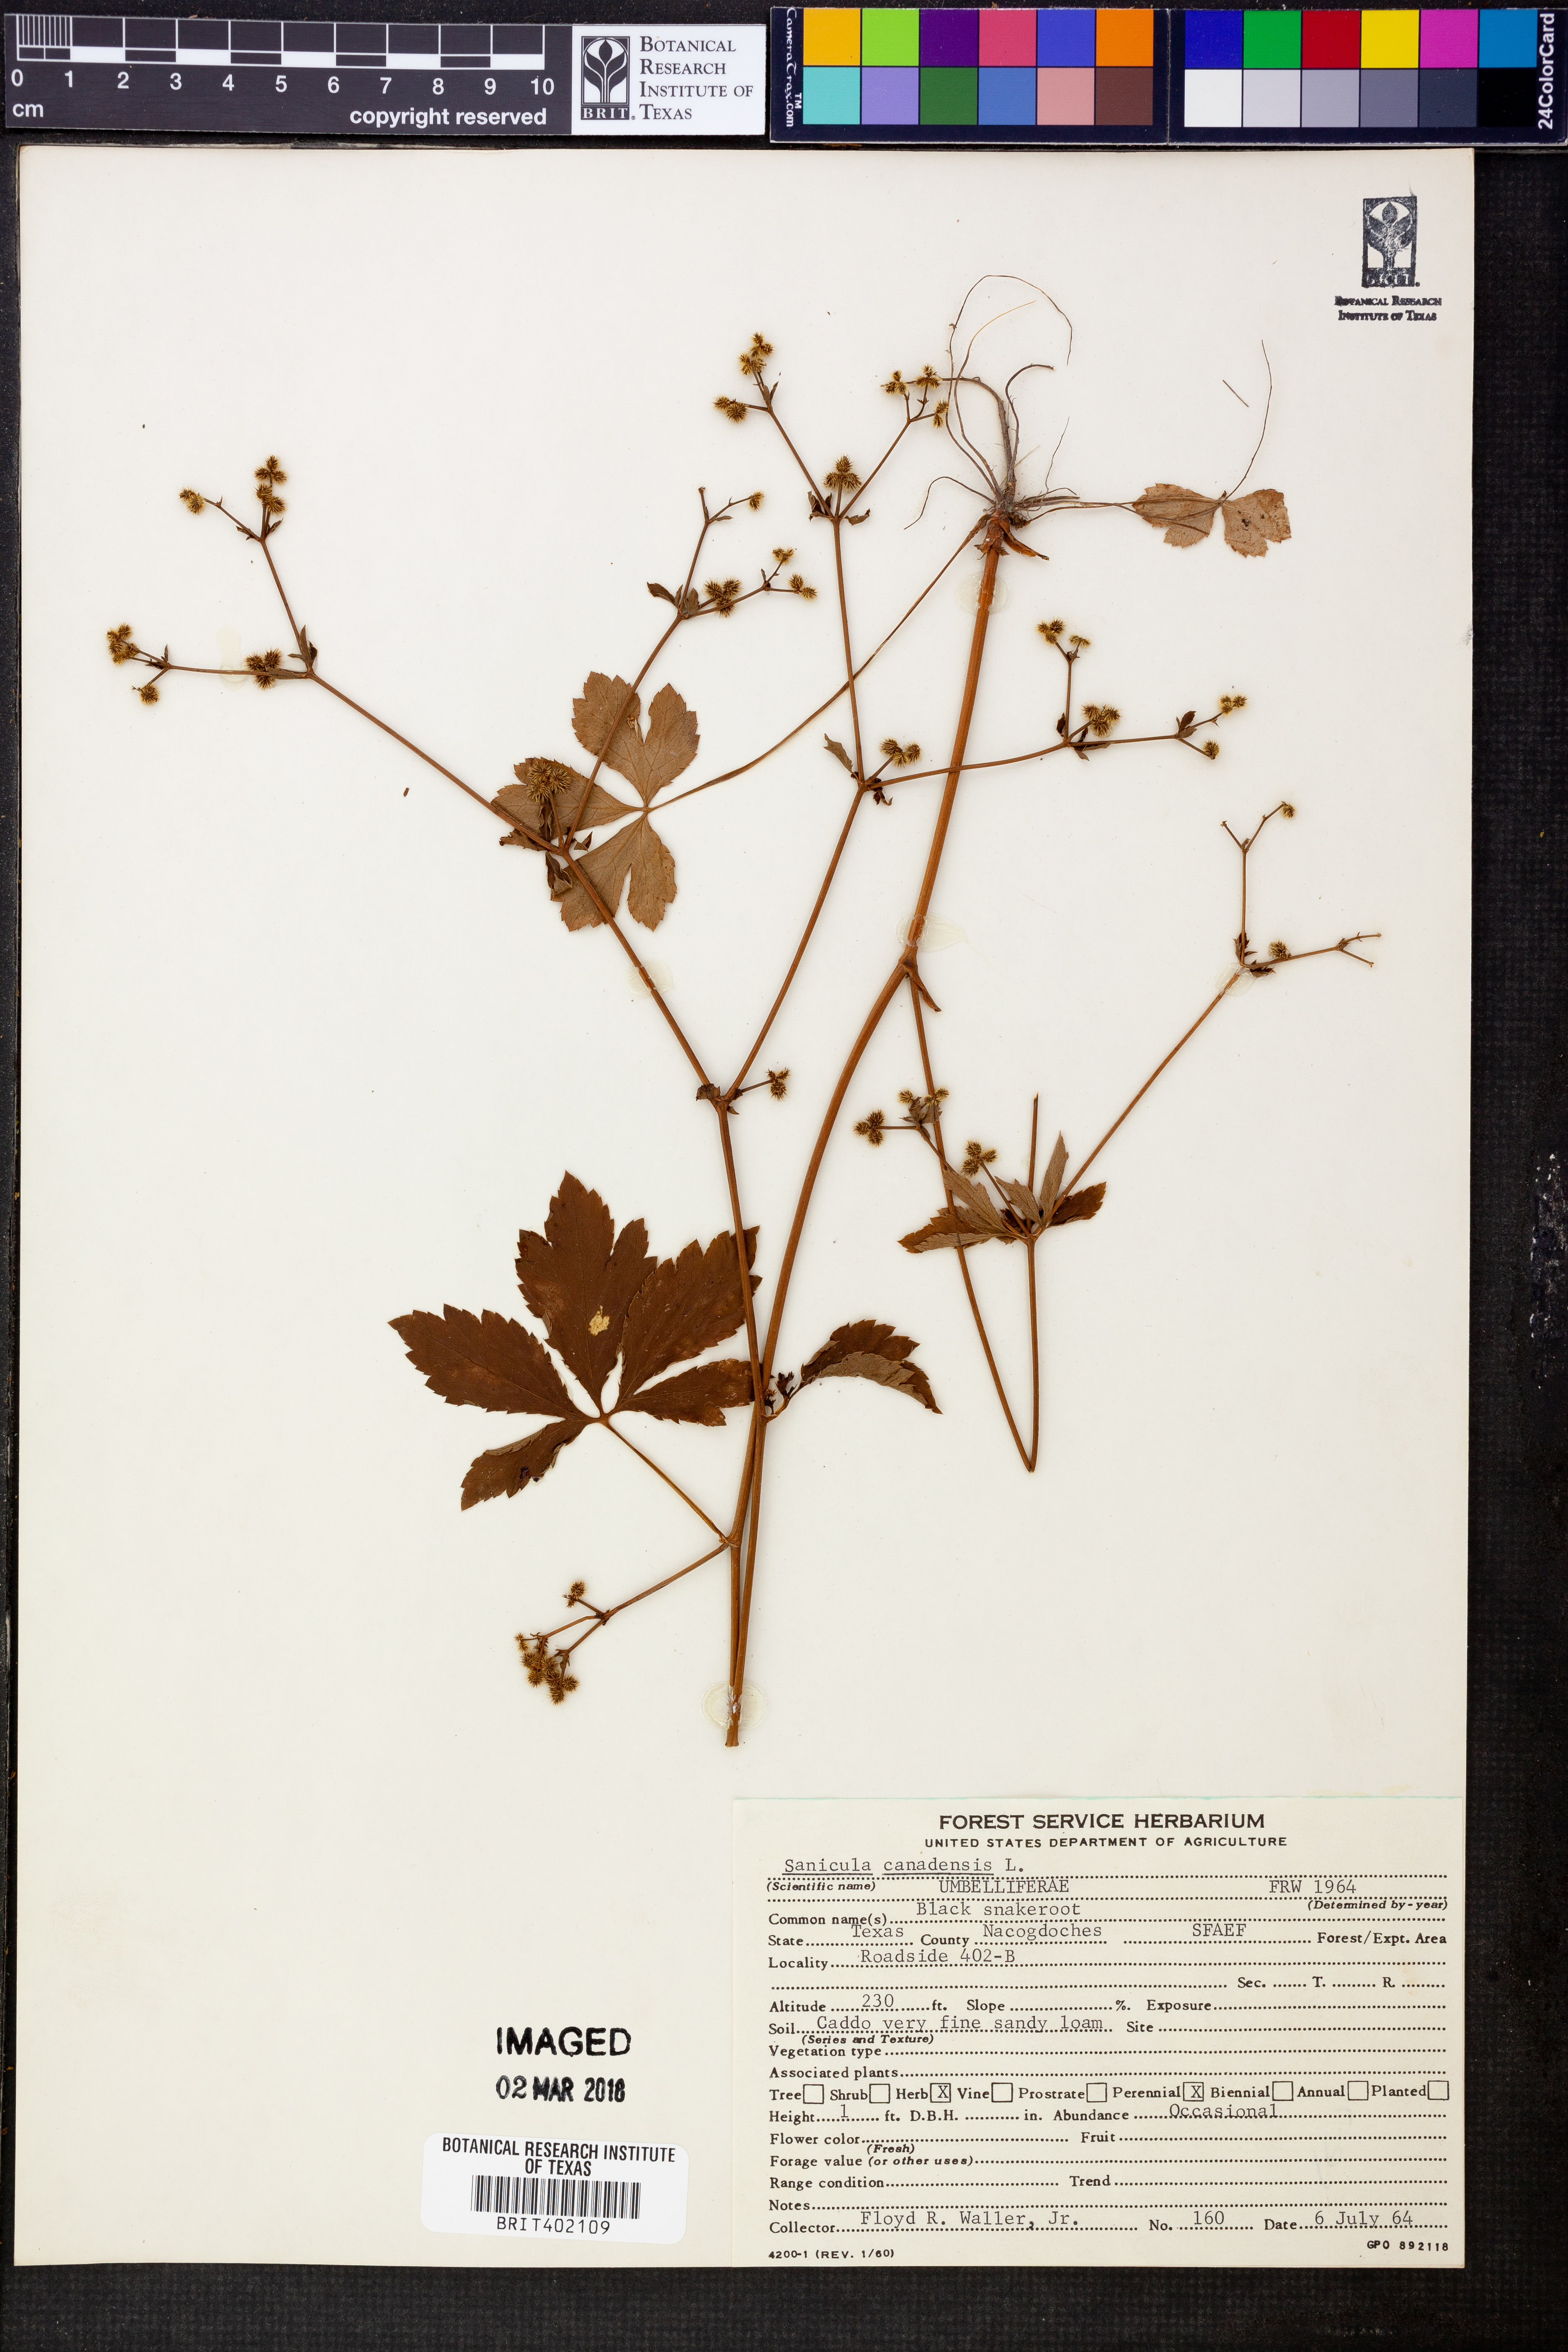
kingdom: Plantae
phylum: Tracheophyta
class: Magnoliopsida
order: Apiales
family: Apiaceae
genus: Sanicula
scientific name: Sanicula canadensis
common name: Canada sanicle
